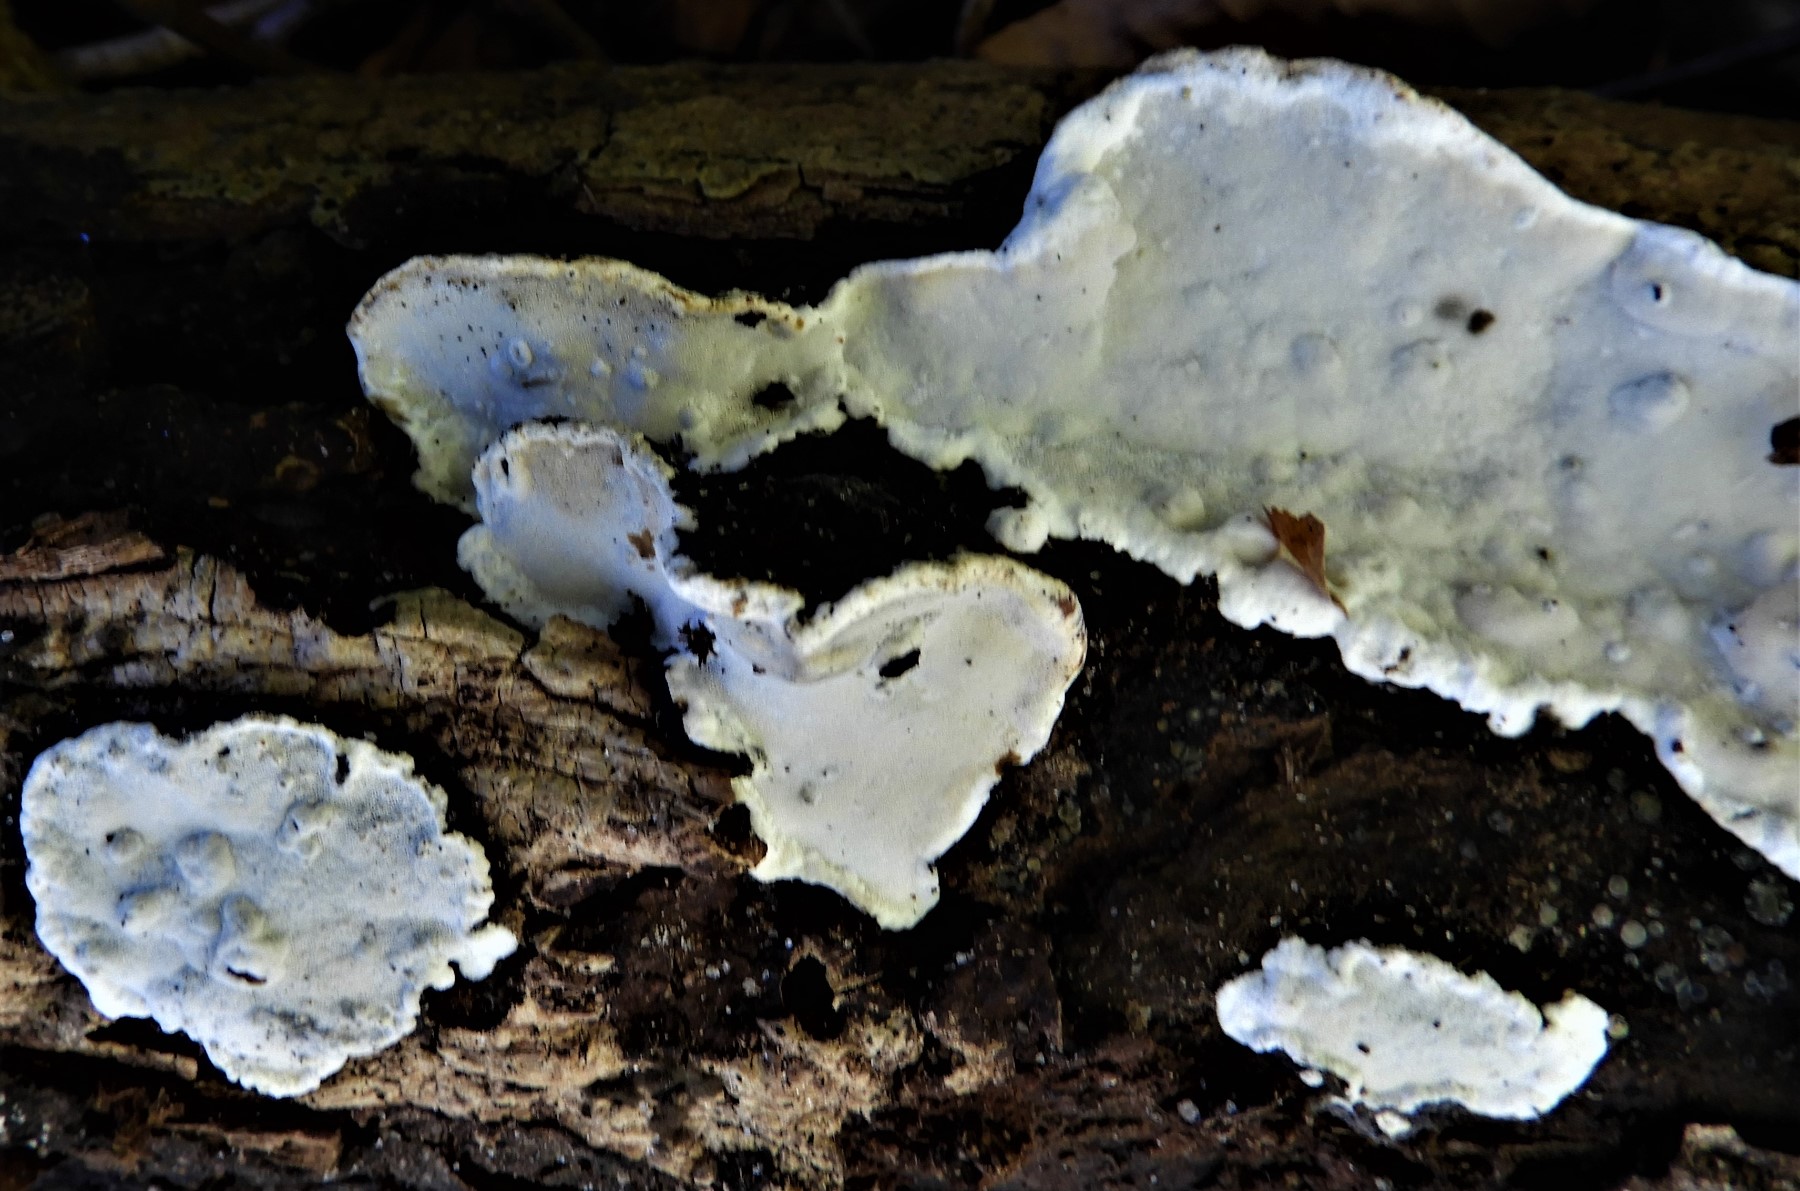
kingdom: Fungi
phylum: Basidiomycota
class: Agaricomycetes
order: Russulales
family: Bondarzewiaceae
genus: Heterobasidion
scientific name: Heterobasidion annosum
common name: almindelig rodfordærver
